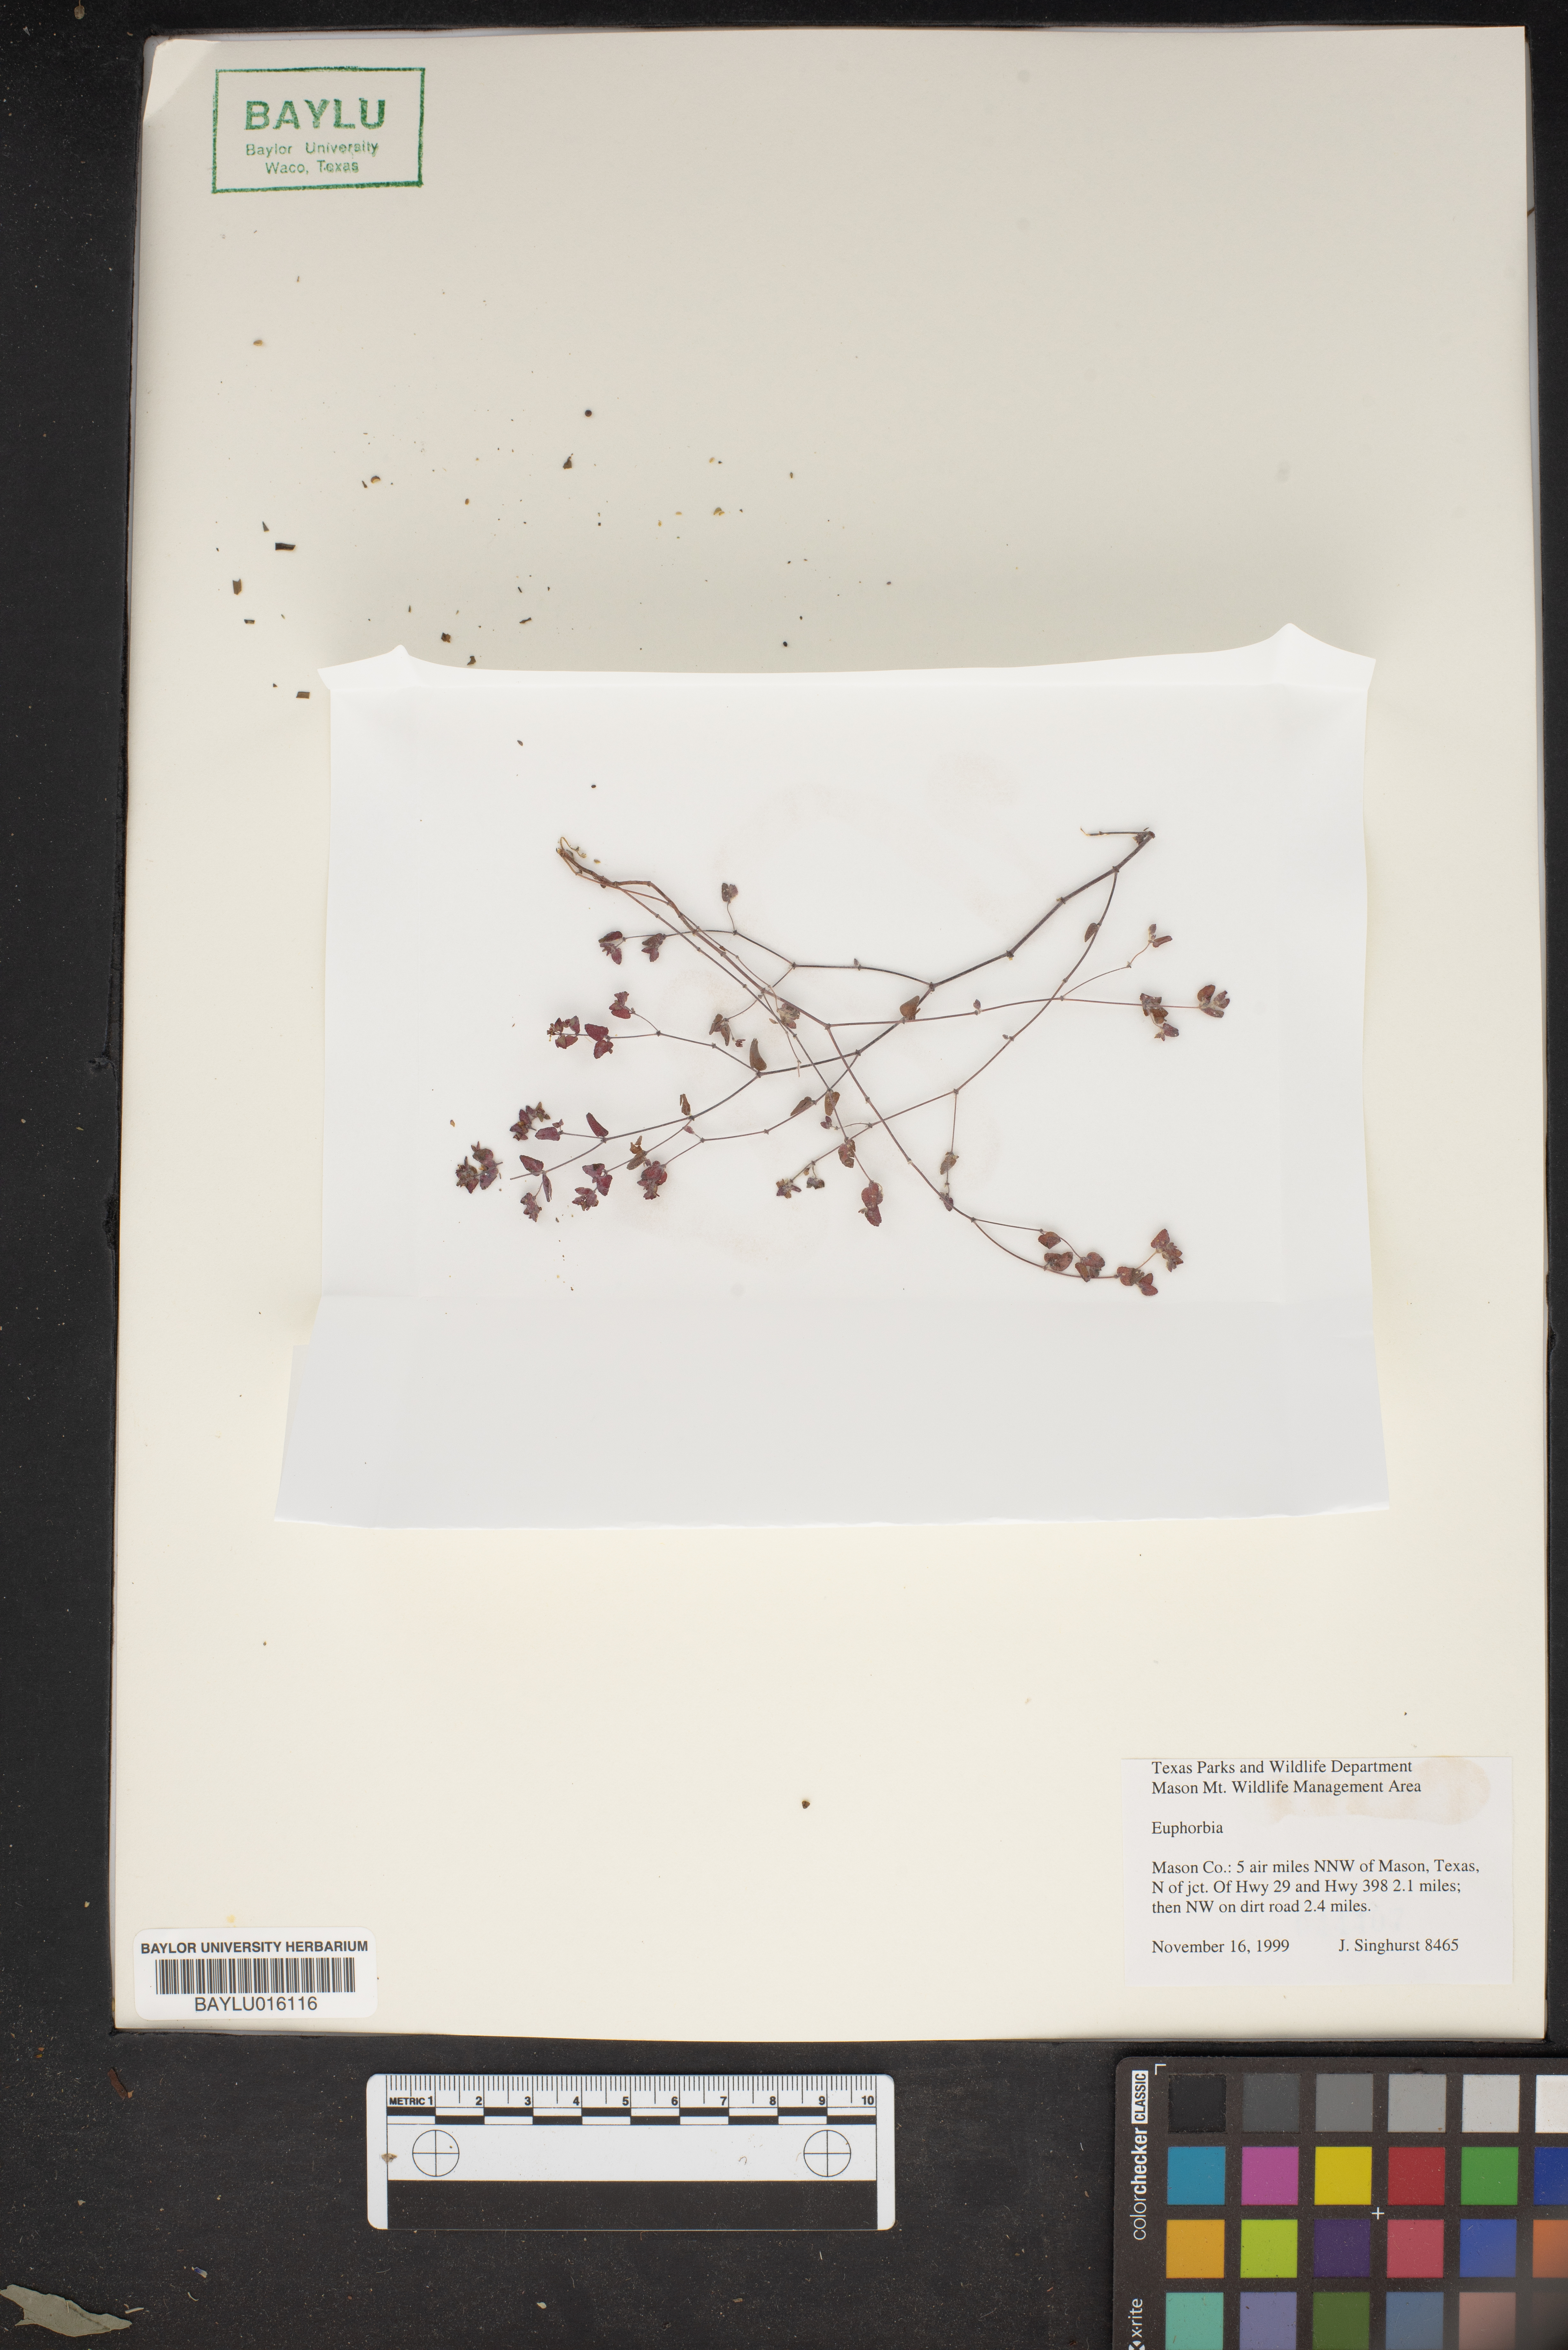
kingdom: Plantae
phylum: Tracheophyta
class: Magnoliopsida
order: Malpighiales
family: Euphorbiaceae
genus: Euphorbia
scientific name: Euphorbia
